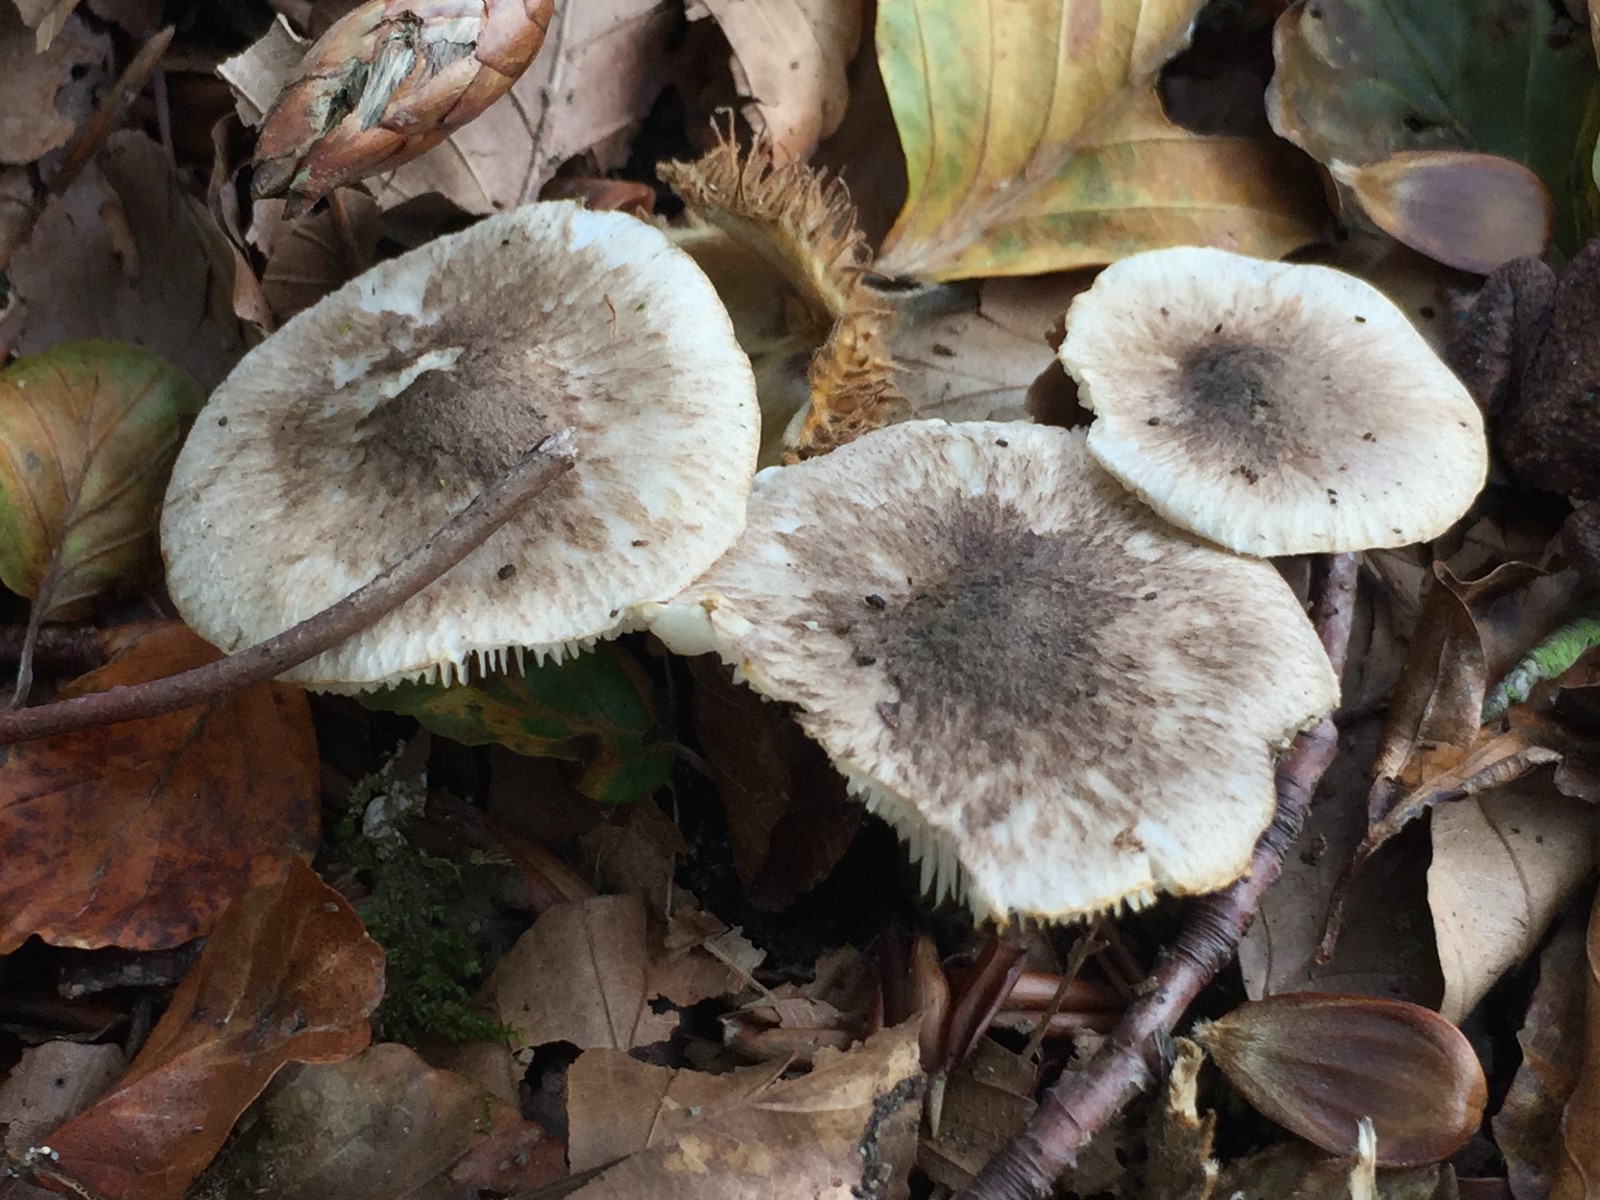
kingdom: Fungi
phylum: Basidiomycota
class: Agaricomycetes
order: Agaricales
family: Tricholomataceae
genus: Tricholoma
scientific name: Tricholoma sciodes
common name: stribet ridderhat
